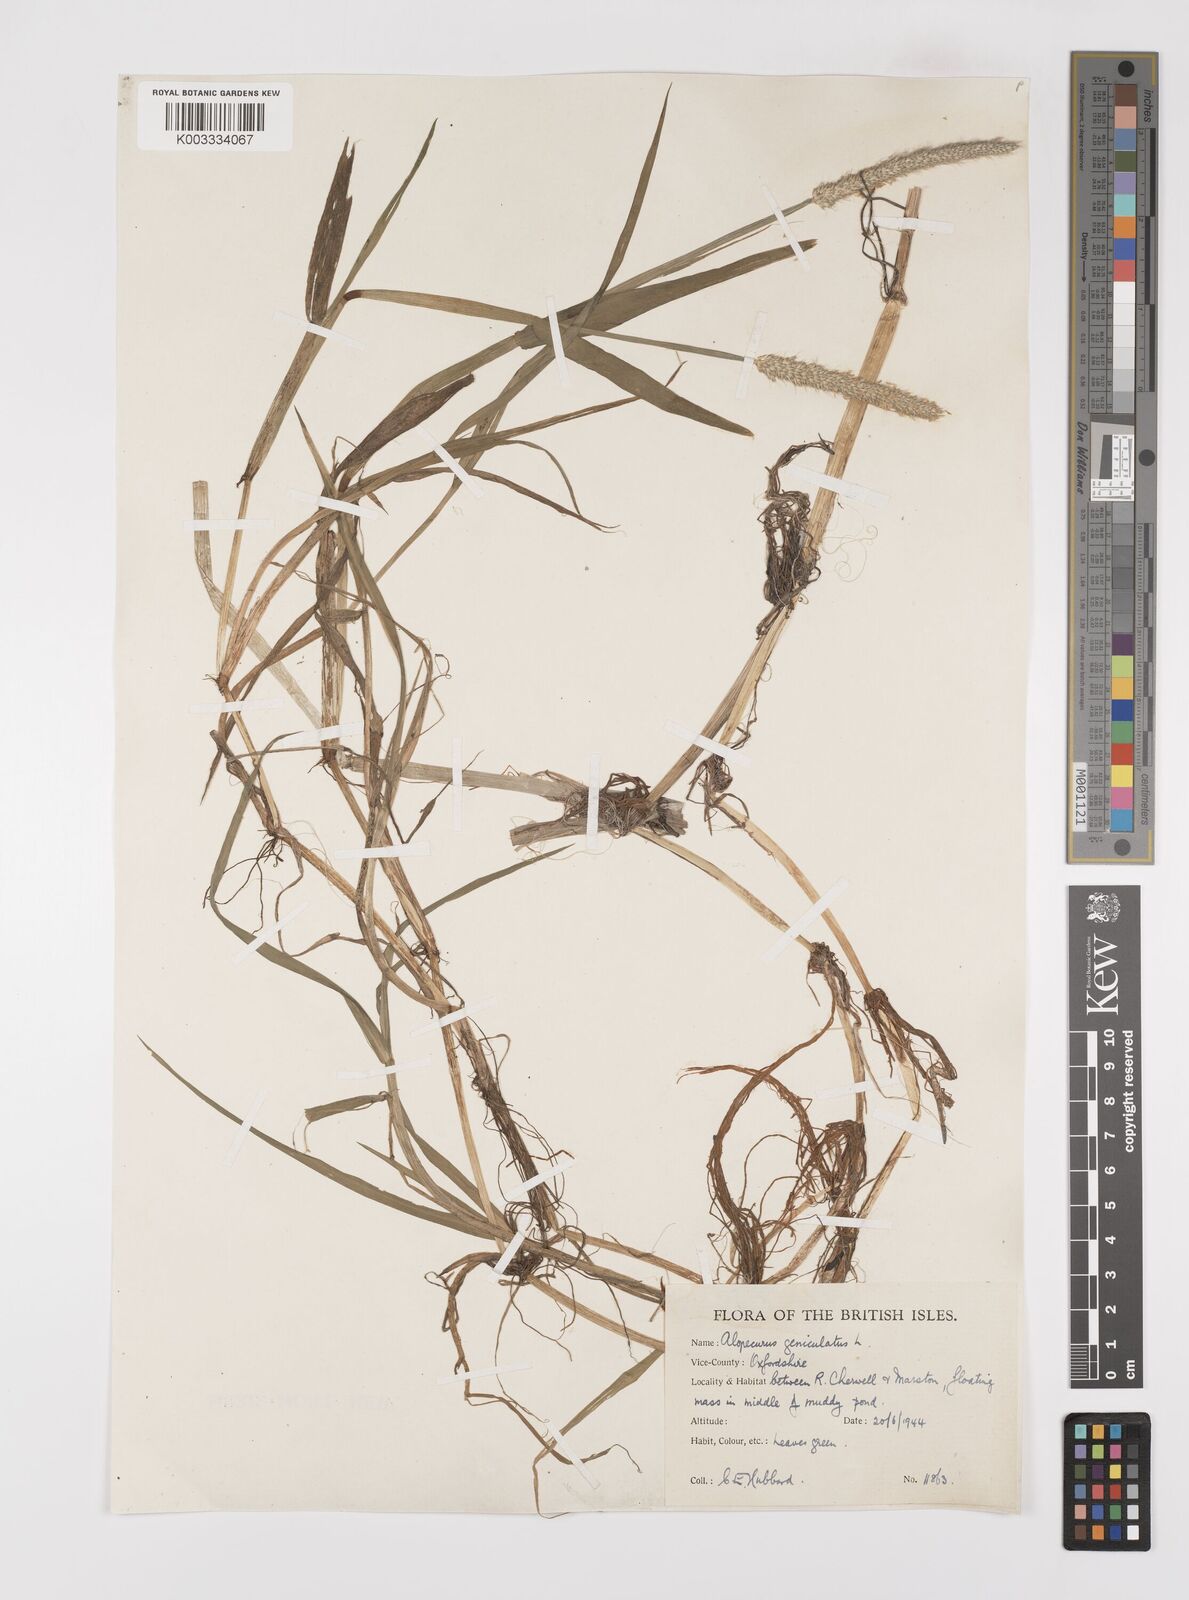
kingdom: Plantae
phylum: Tracheophyta
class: Liliopsida
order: Poales
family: Poaceae
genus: Alopecurus
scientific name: Alopecurus geniculatus
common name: Water foxtail
